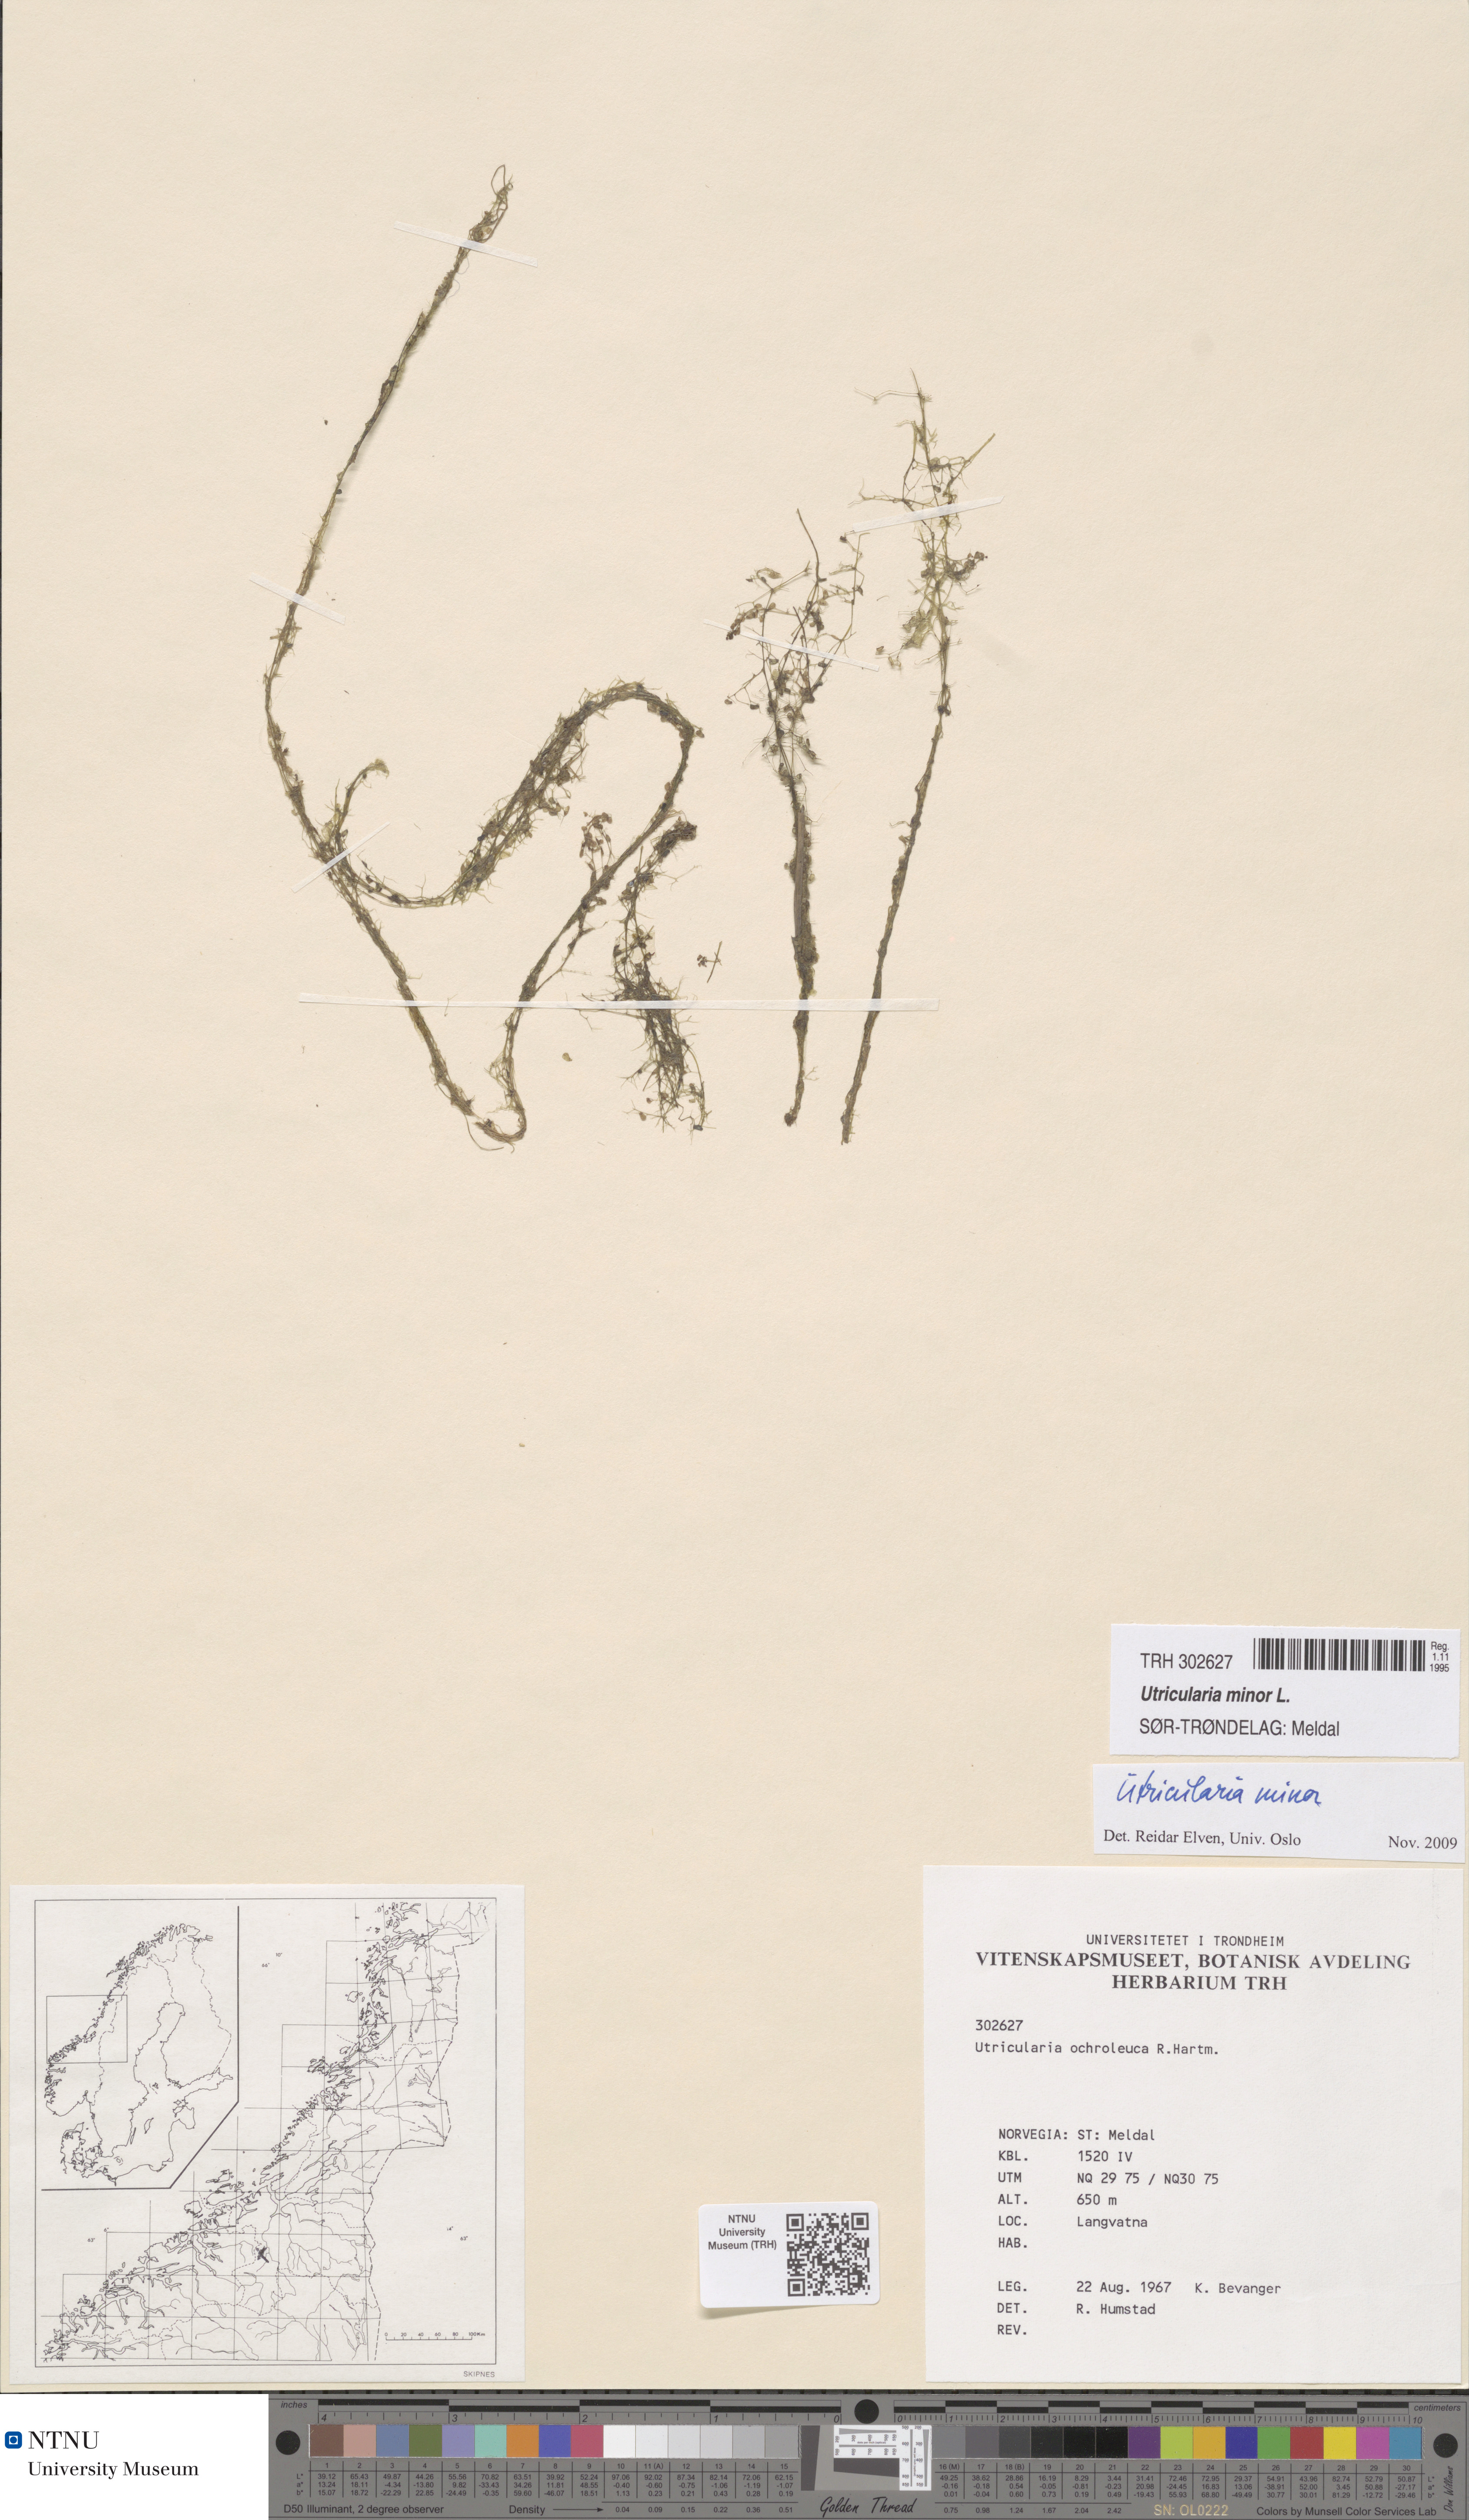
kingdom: Plantae
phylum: Tracheophyta
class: Magnoliopsida
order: Lamiales
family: Lentibulariaceae
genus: Utricularia
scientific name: Utricularia minor
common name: Lesser bladderwort
